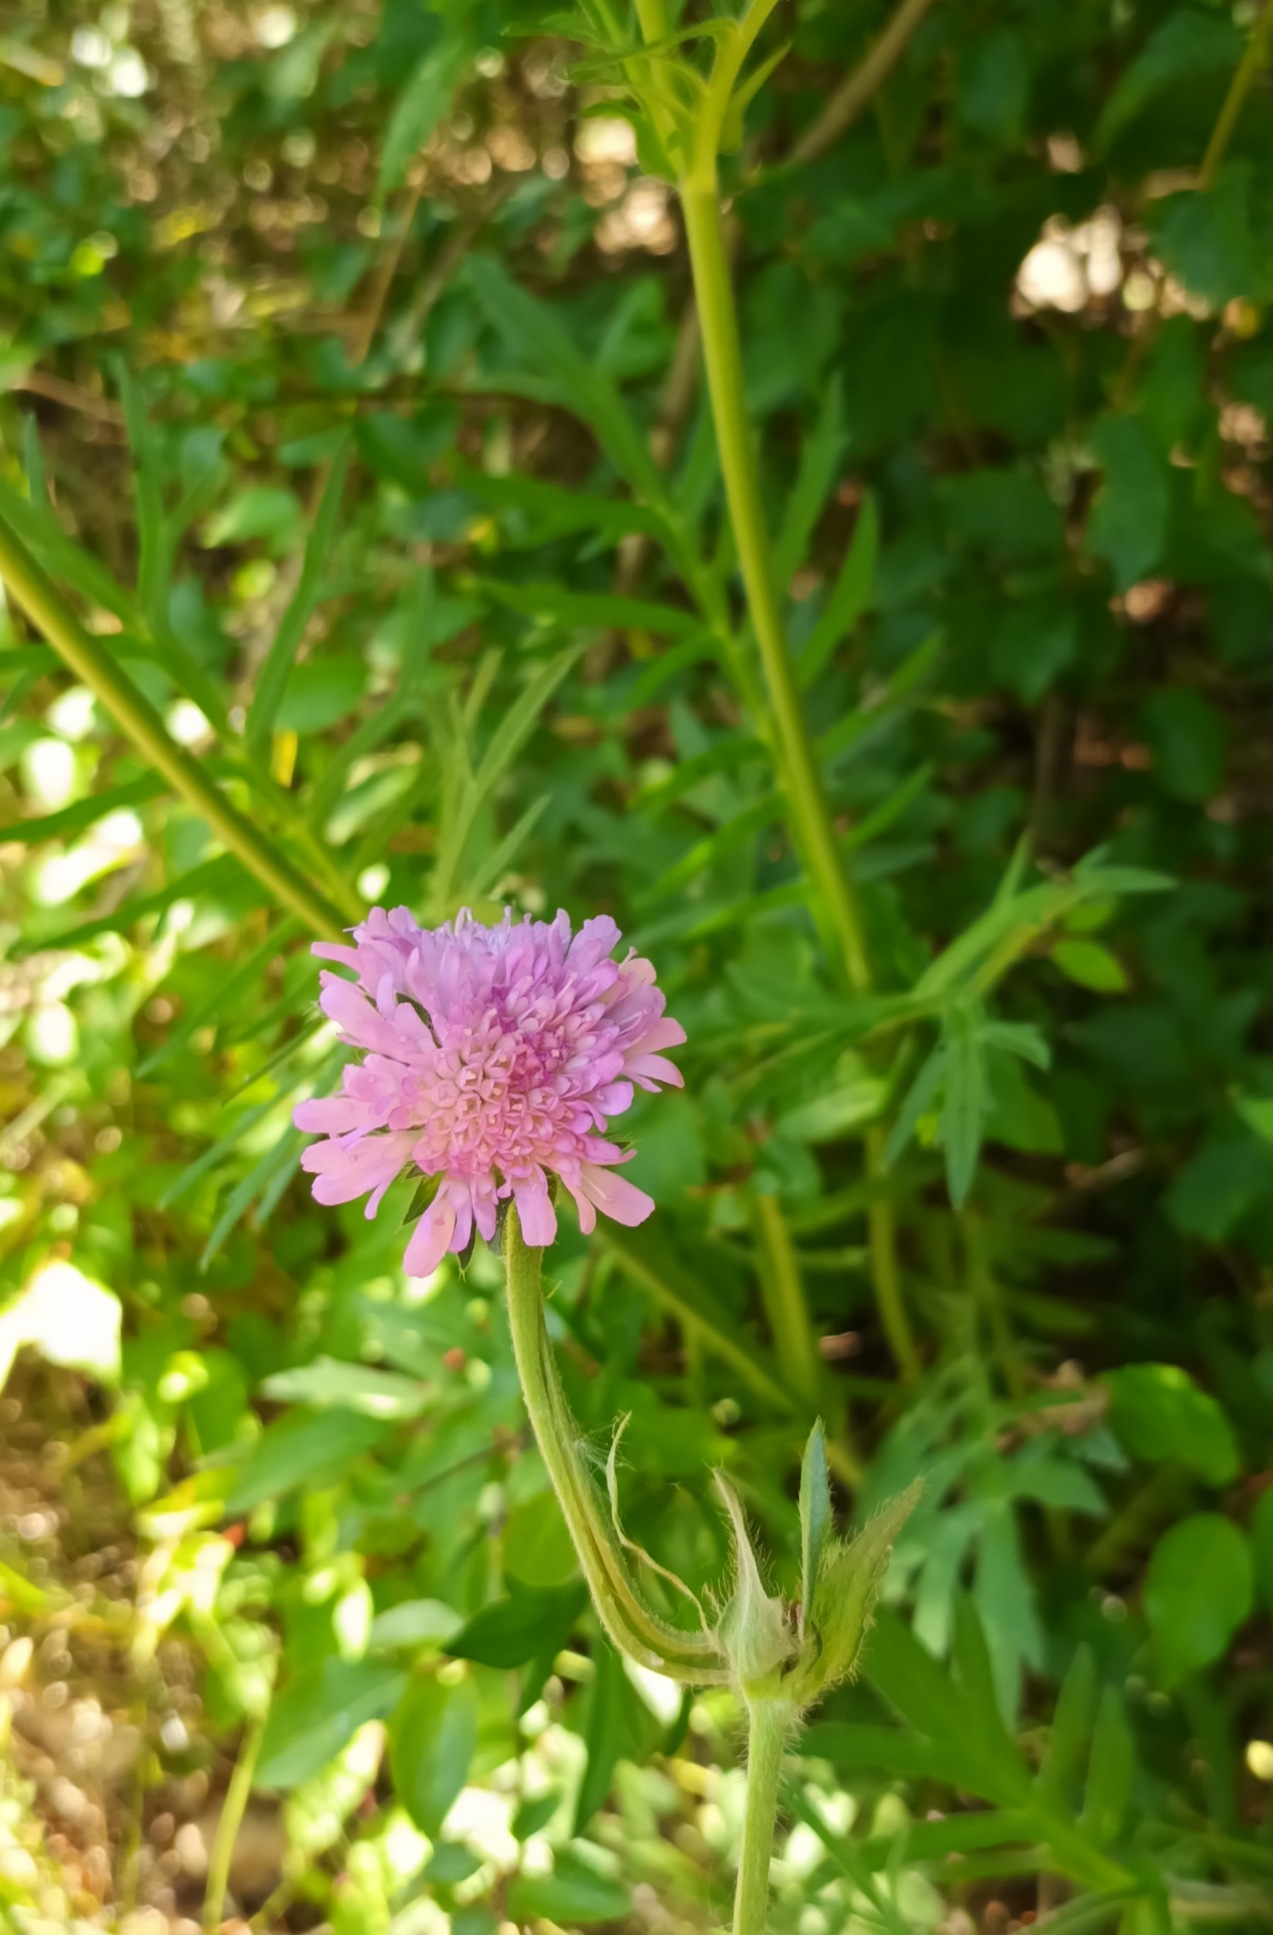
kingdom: Plantae
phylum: Tracheophyta
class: Magnoliopsida
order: Dipsacales
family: Caprifoliaceae
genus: Knautia
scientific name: Knautia arvensis
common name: Blåhat
